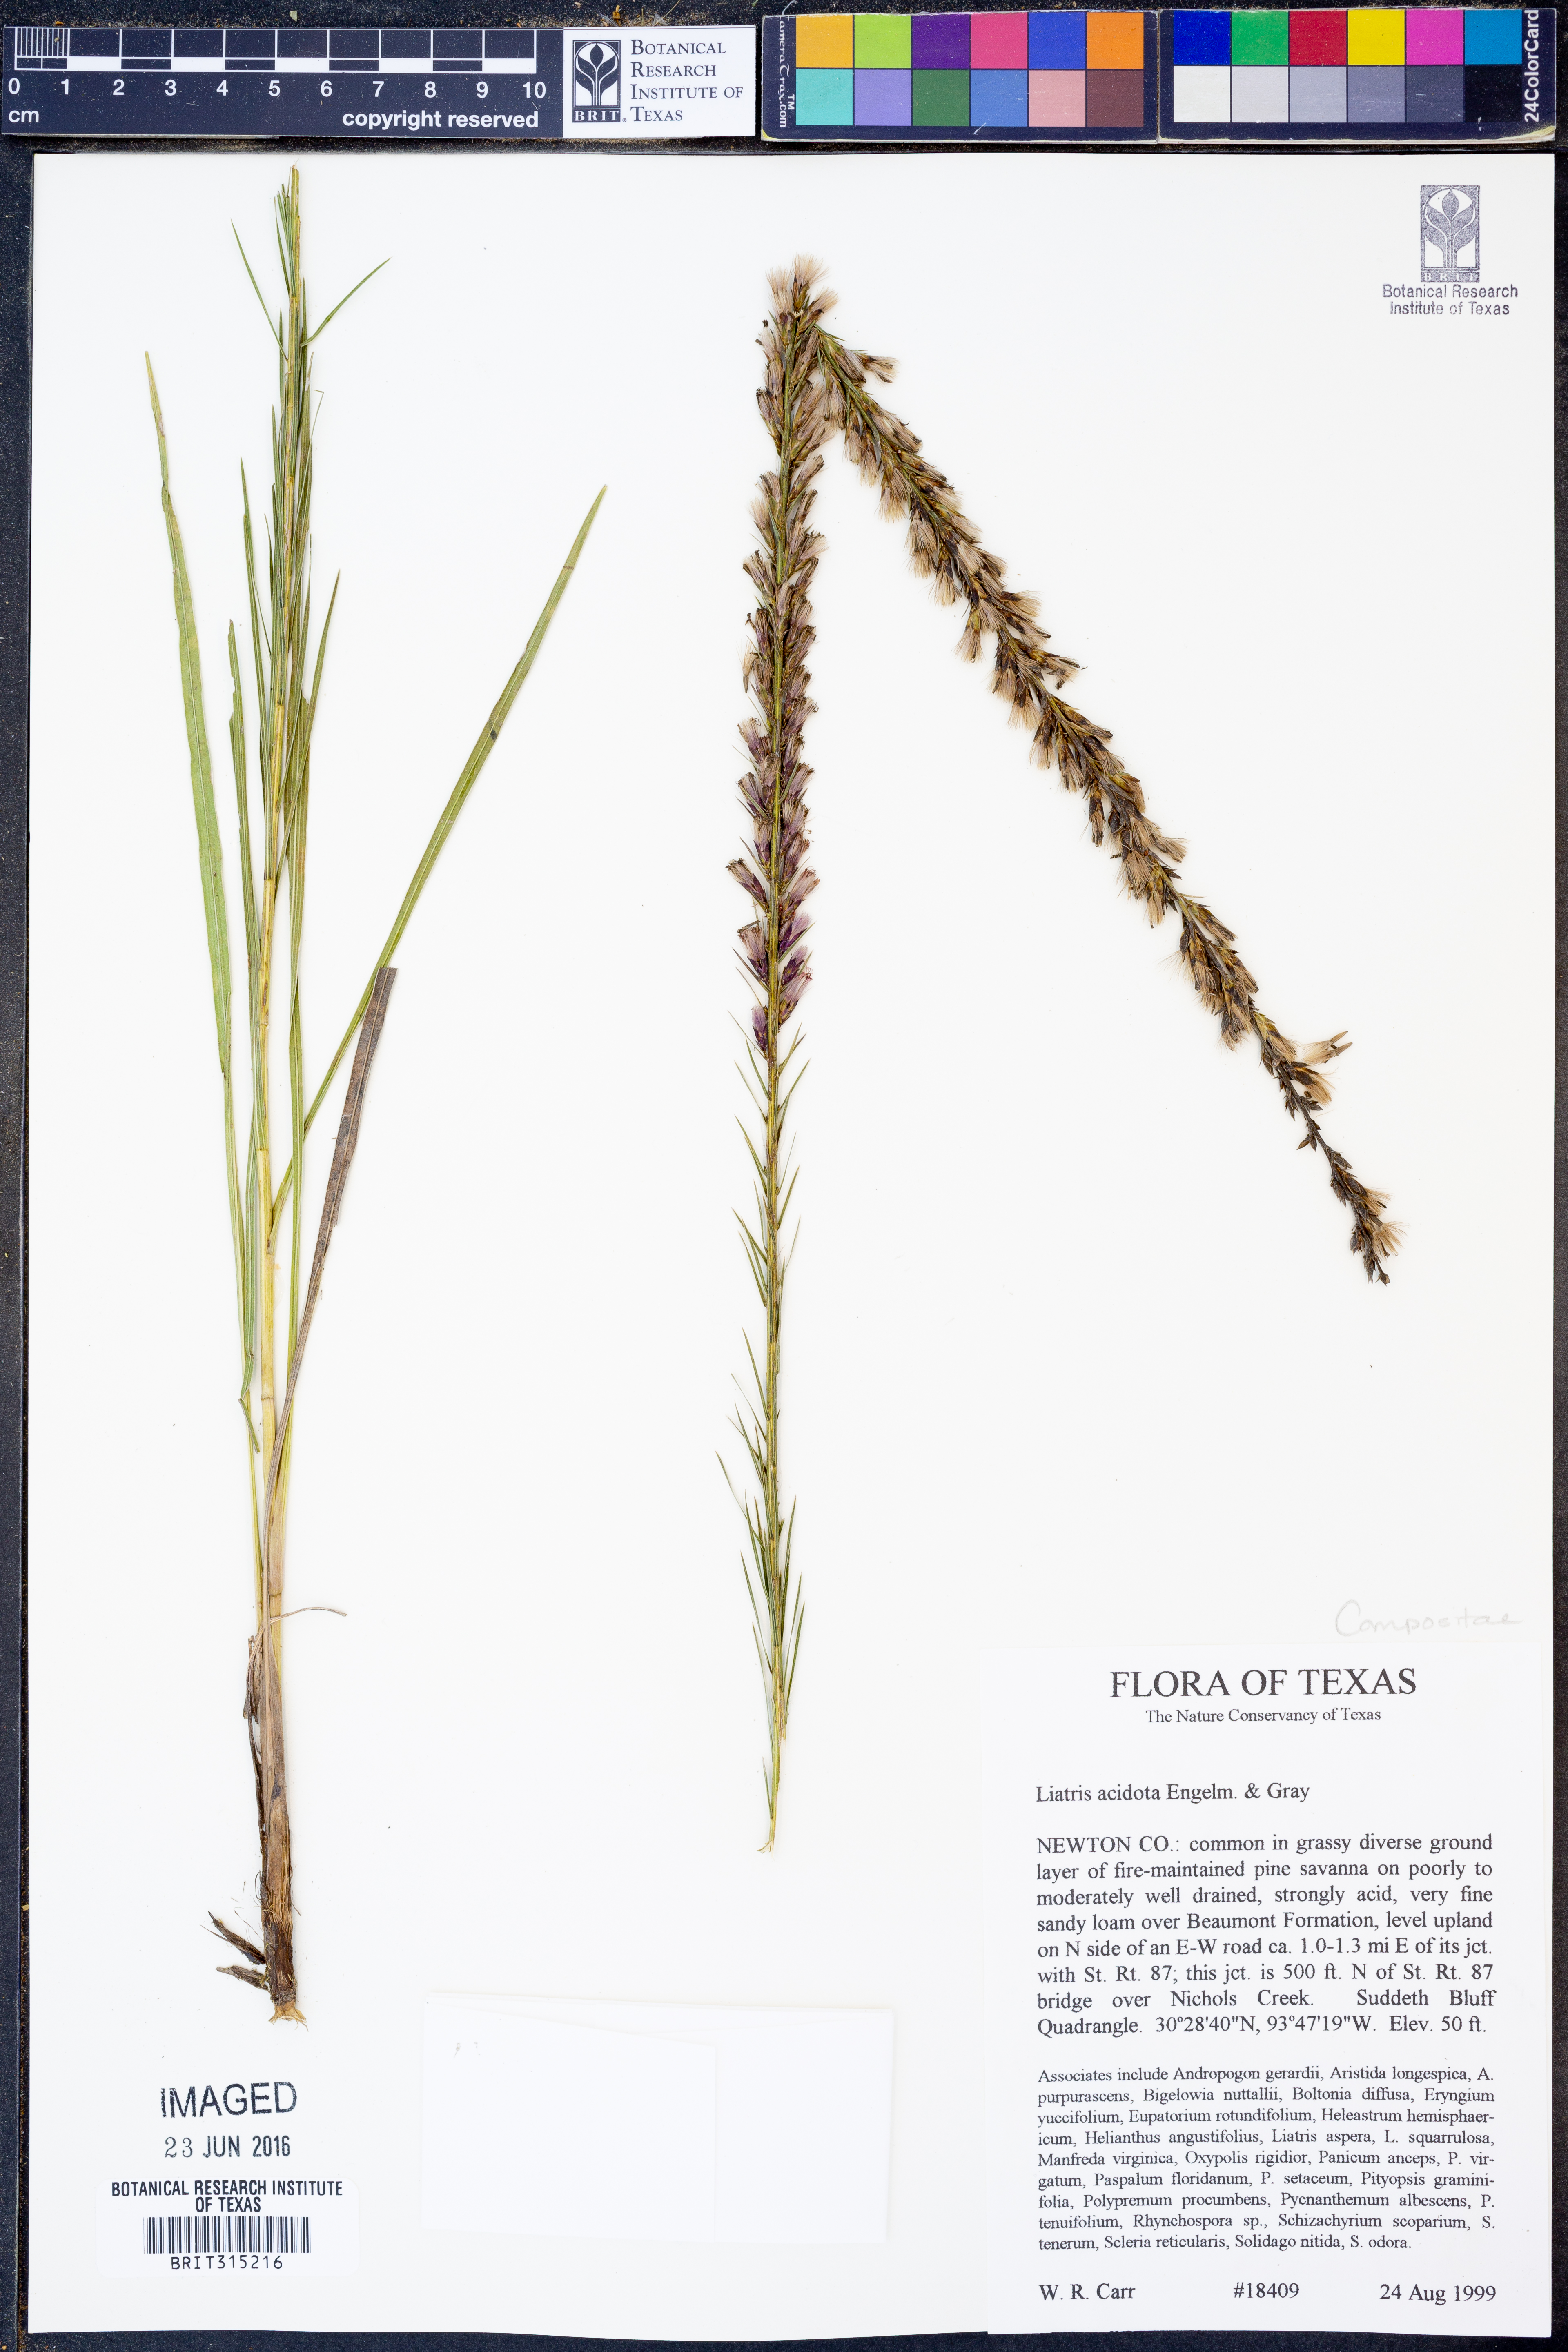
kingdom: Plantae
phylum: Tracheophyta
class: Magnoliopsida
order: Asterales
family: Asteraceae
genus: Liatris
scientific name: Liatris acidota
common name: Gulf coast gayfeather
